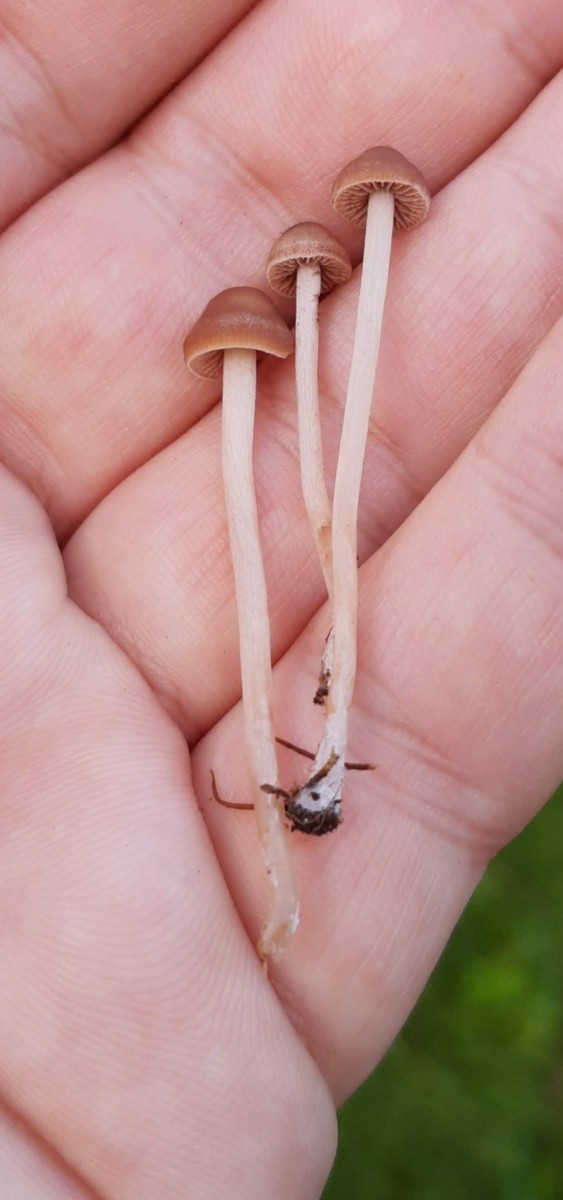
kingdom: Fungi
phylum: Basidiomycota
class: Agaricomycetes
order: Agaricales
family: Bolbitiaceae
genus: Panaeolina
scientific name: Panaeolina foenisecii
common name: høslætsvamp
